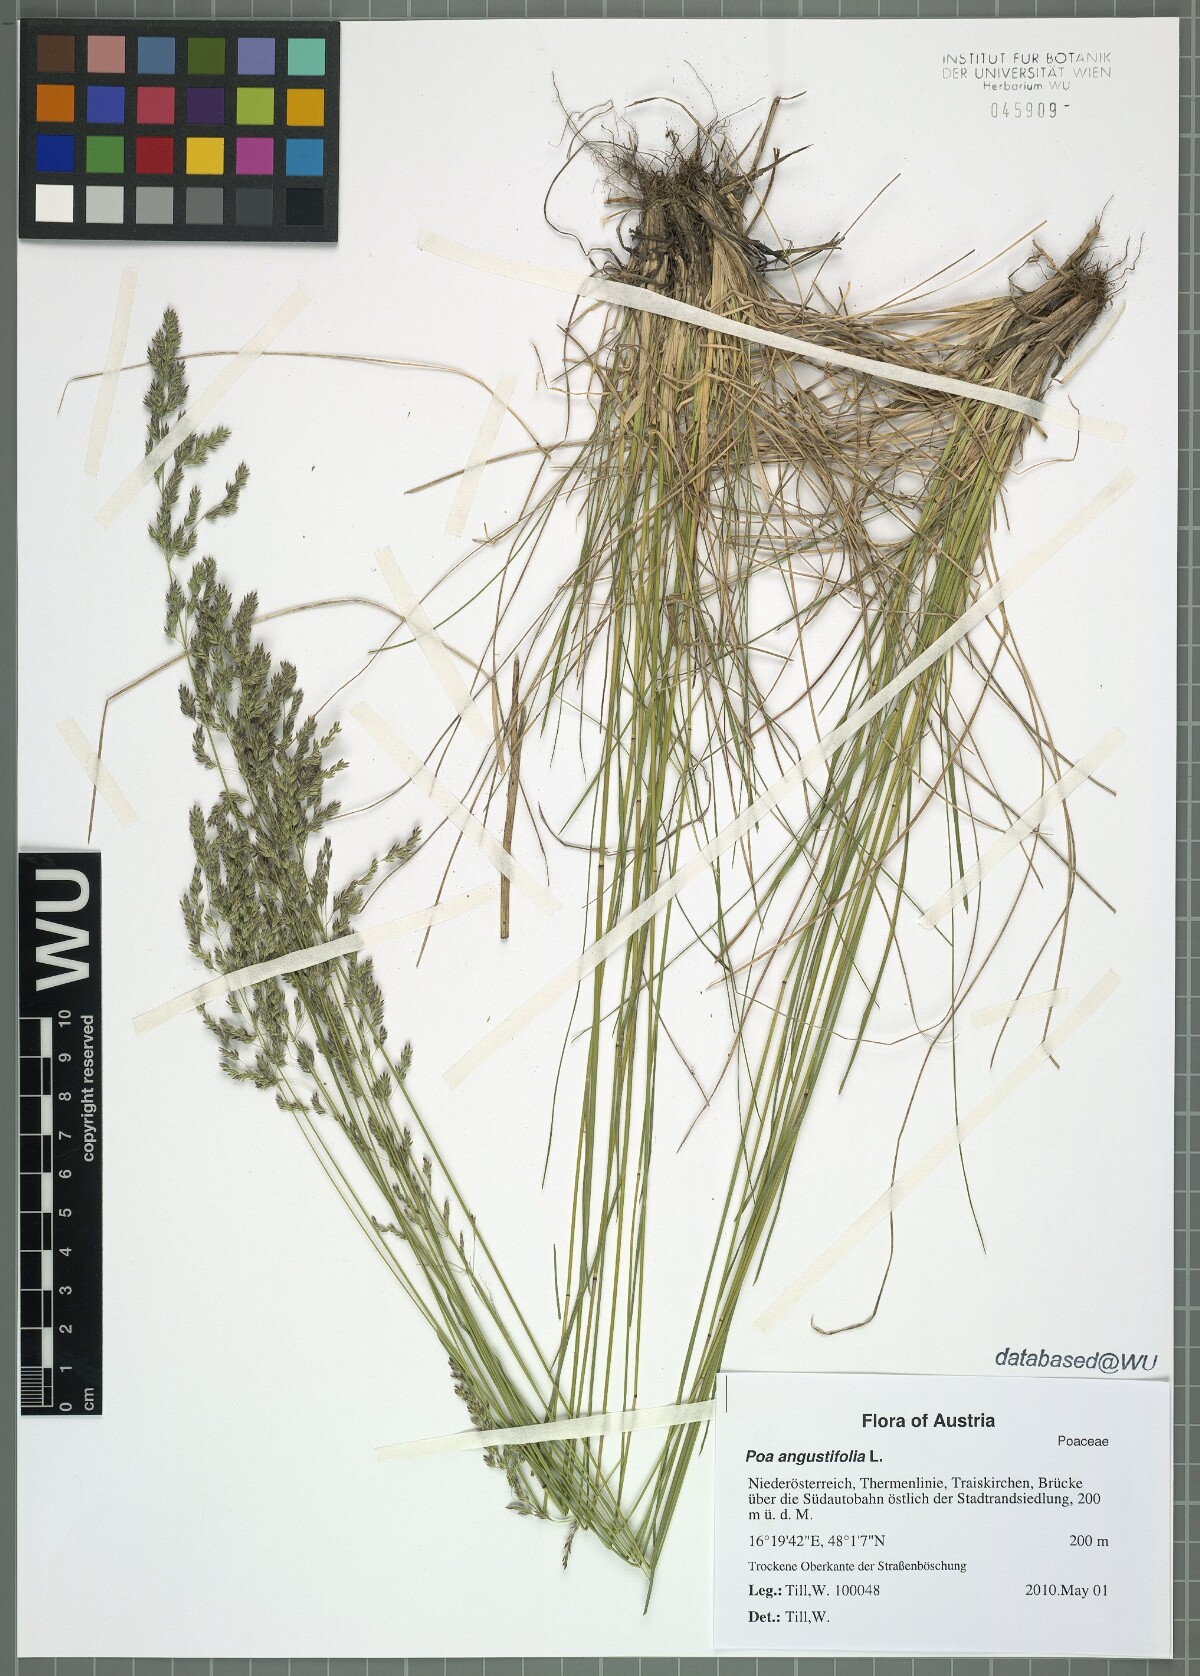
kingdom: Plantae
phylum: Tracheophyta
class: Liliopsida
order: Poales
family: Poaceae
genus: Poa
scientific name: Poa angustifolia
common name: Narrow-leaved meadow-grass
